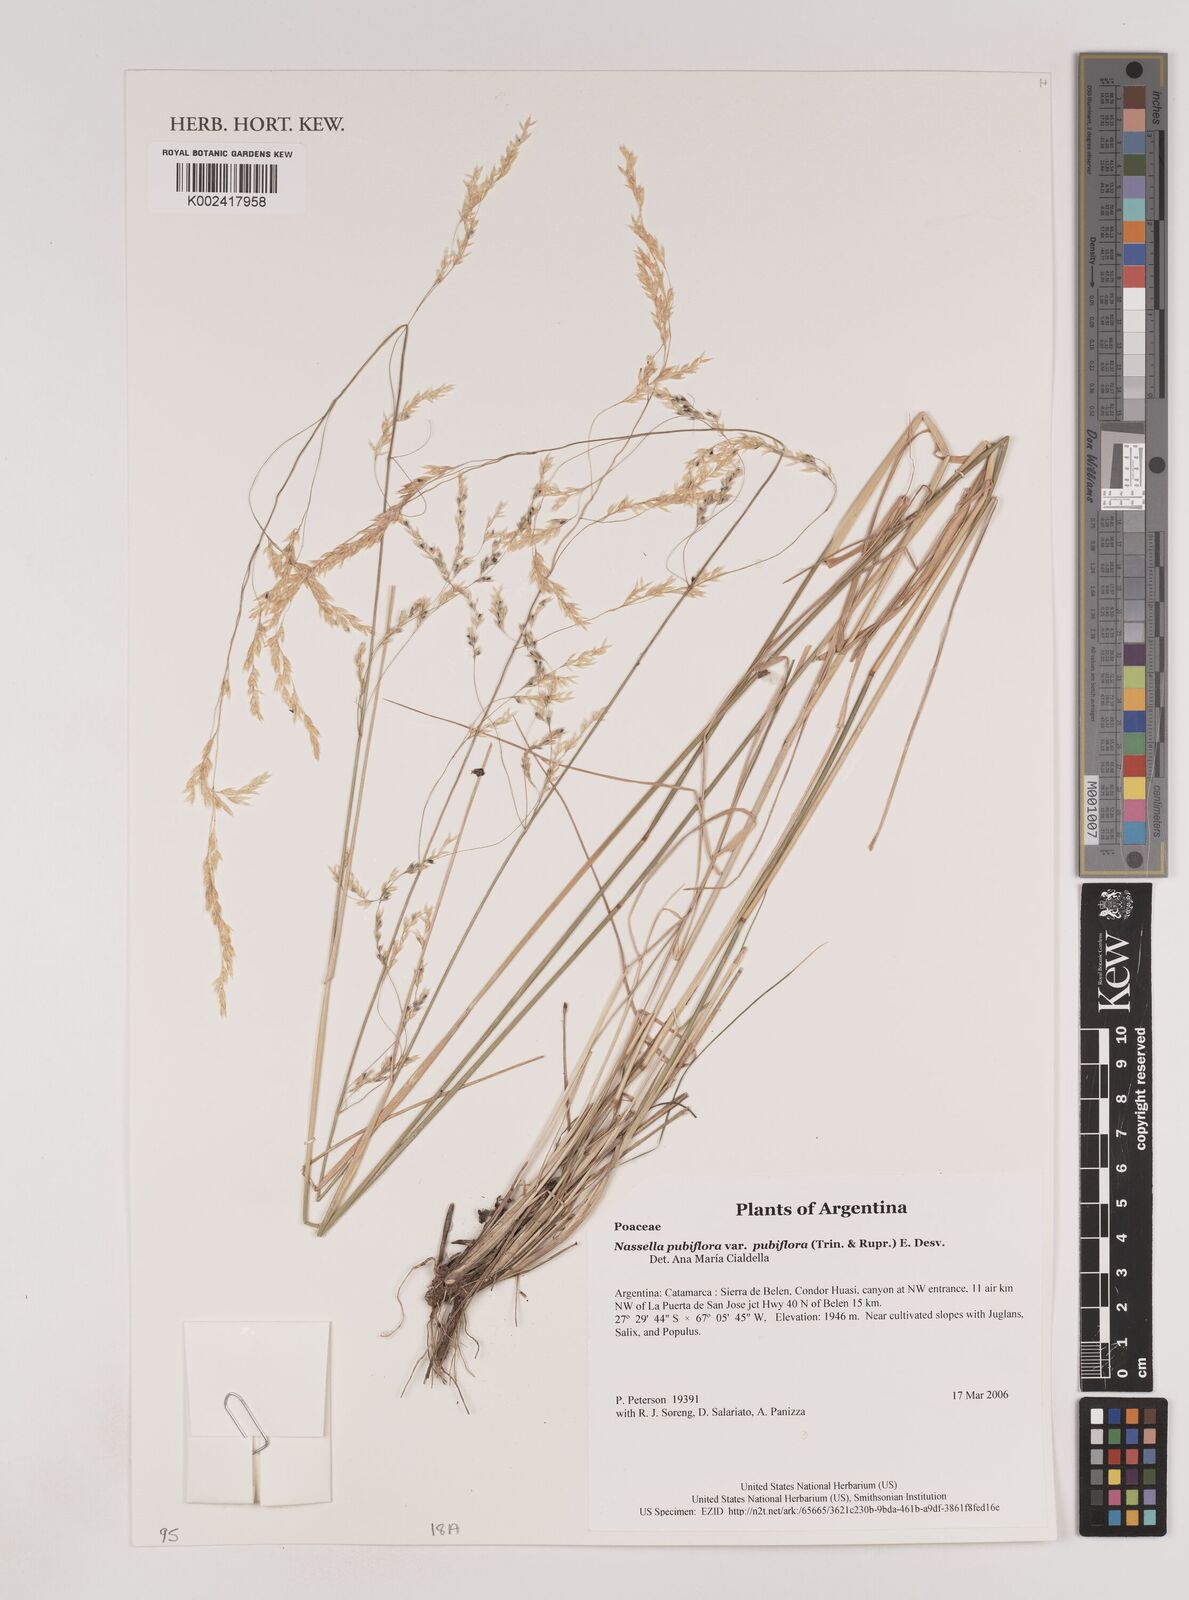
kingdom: Plantae
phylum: Tracheophyta
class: Liliopsida
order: Poales
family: Poaceae
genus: Nassella
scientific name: Nassella pubiflora
